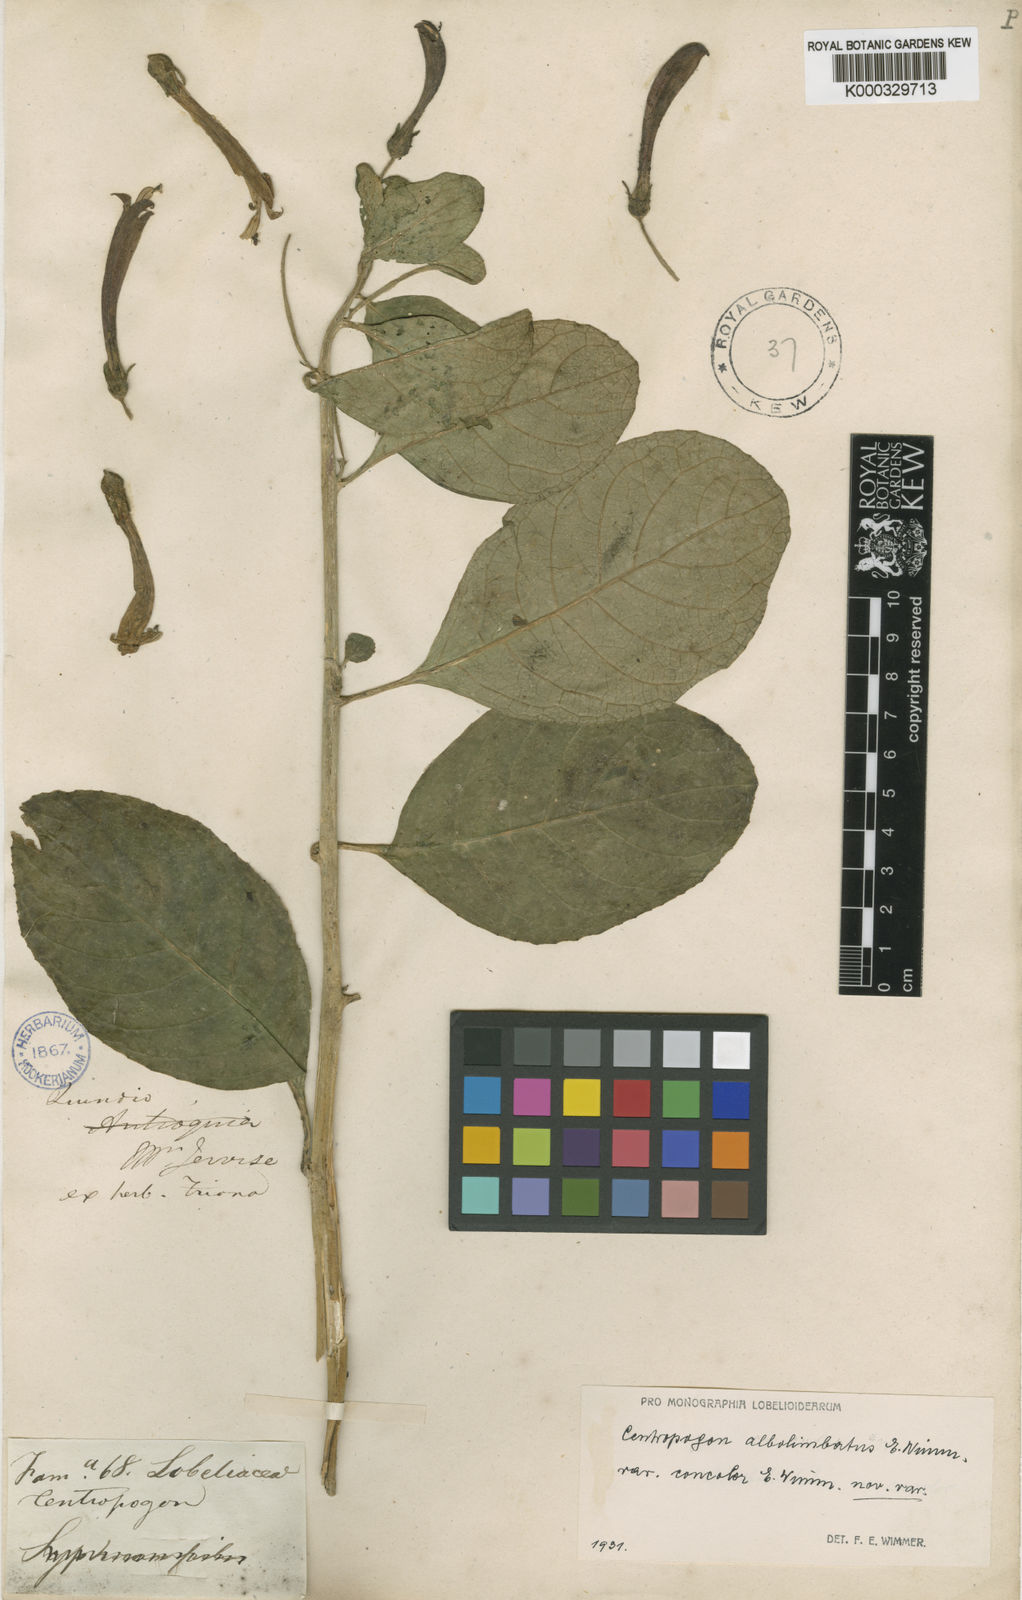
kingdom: Plantae
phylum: Tracheophyta
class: Magnoliopsida
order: Asterales
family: Campanulaceae
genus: Centropogon
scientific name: Centropogon albolimbatus
